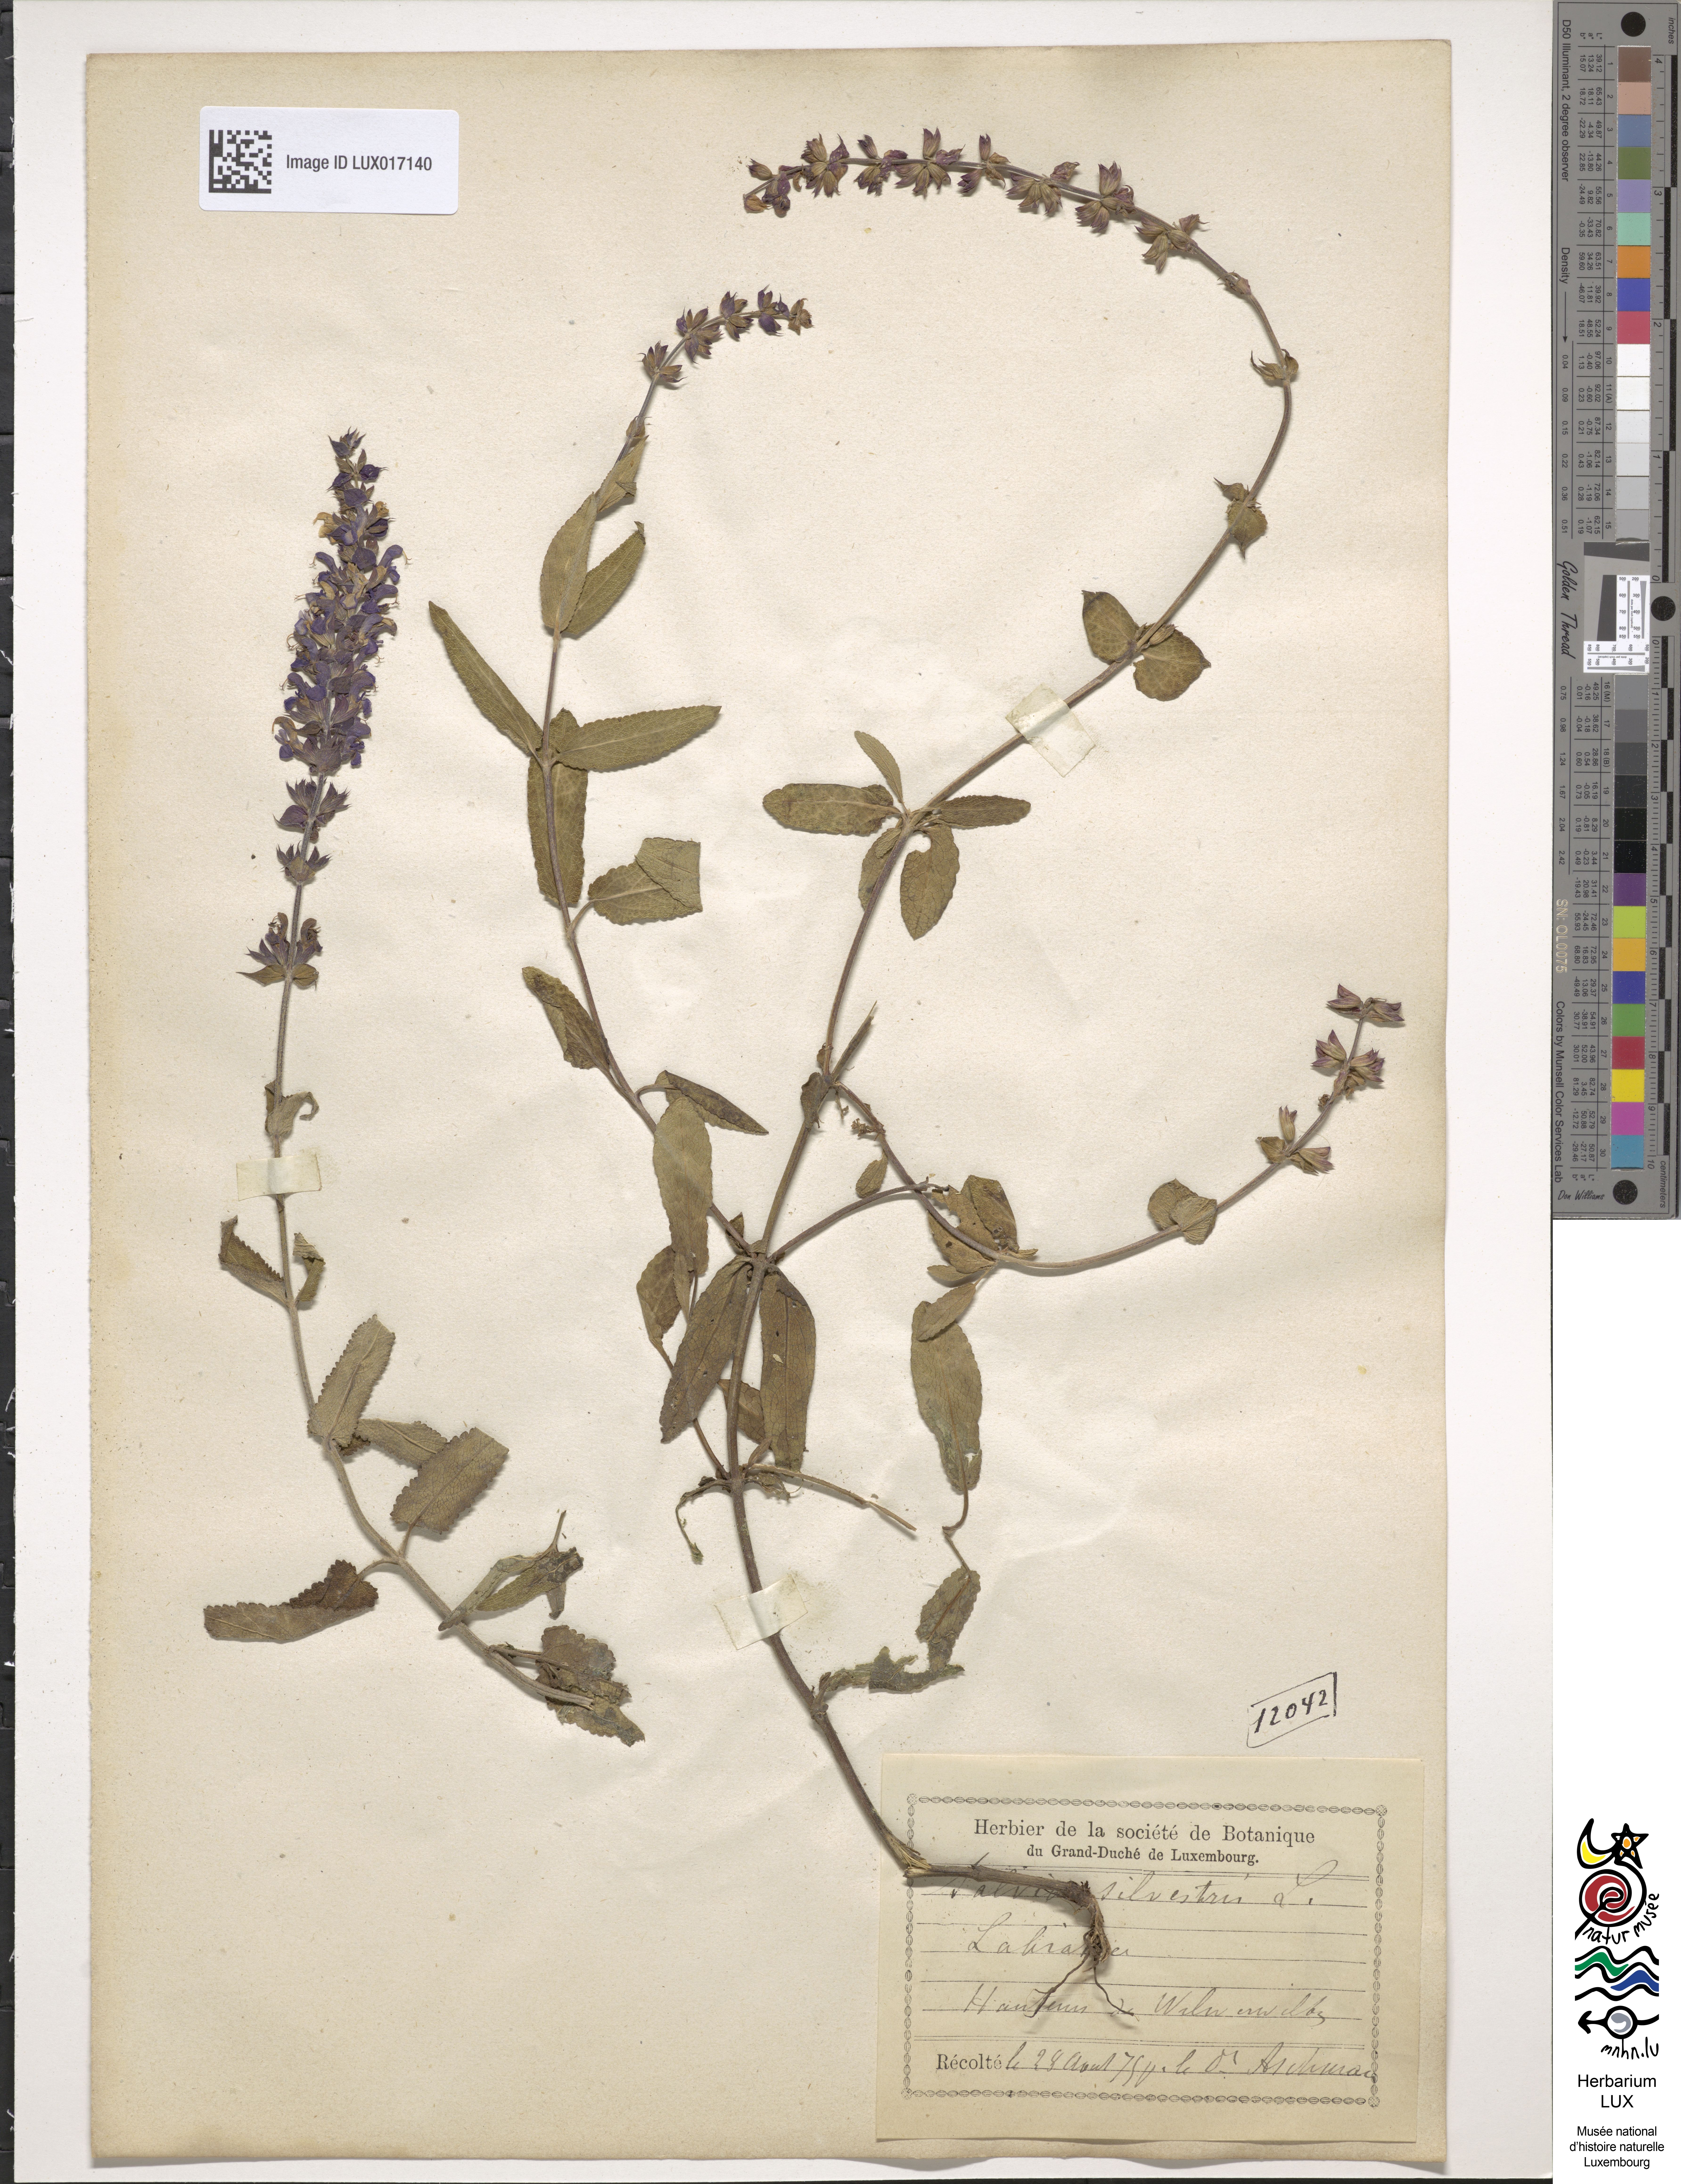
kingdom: Plantae
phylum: Tracheophyta
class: Magnoliopsida
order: Lamiales
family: Lamiaceae
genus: Salvia
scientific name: Salvia nemorosa
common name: Balkan clary
